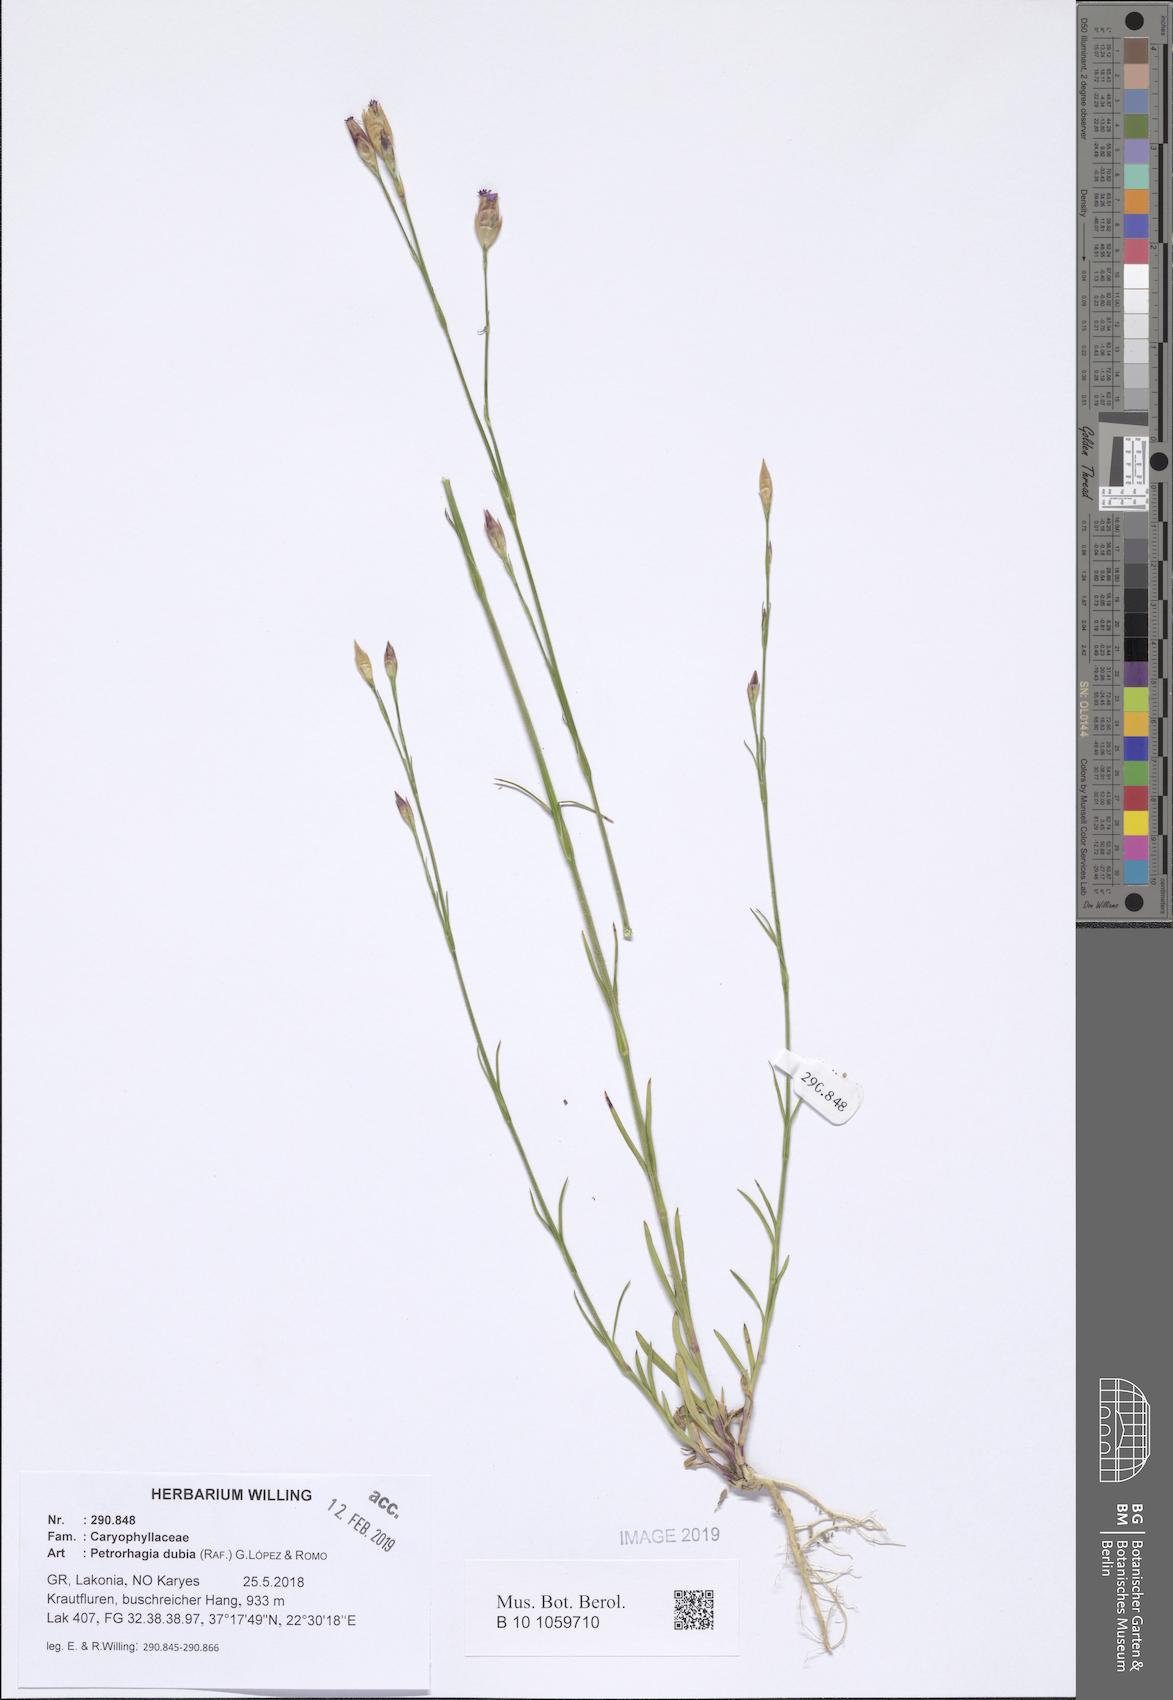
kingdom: Plantae
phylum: Tracheophyta
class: Magnoliopsida
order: Caryophyllales
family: Caryophyllaceae
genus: Petrorhagia
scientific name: Petrorhagia dubia
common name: Hairypink
